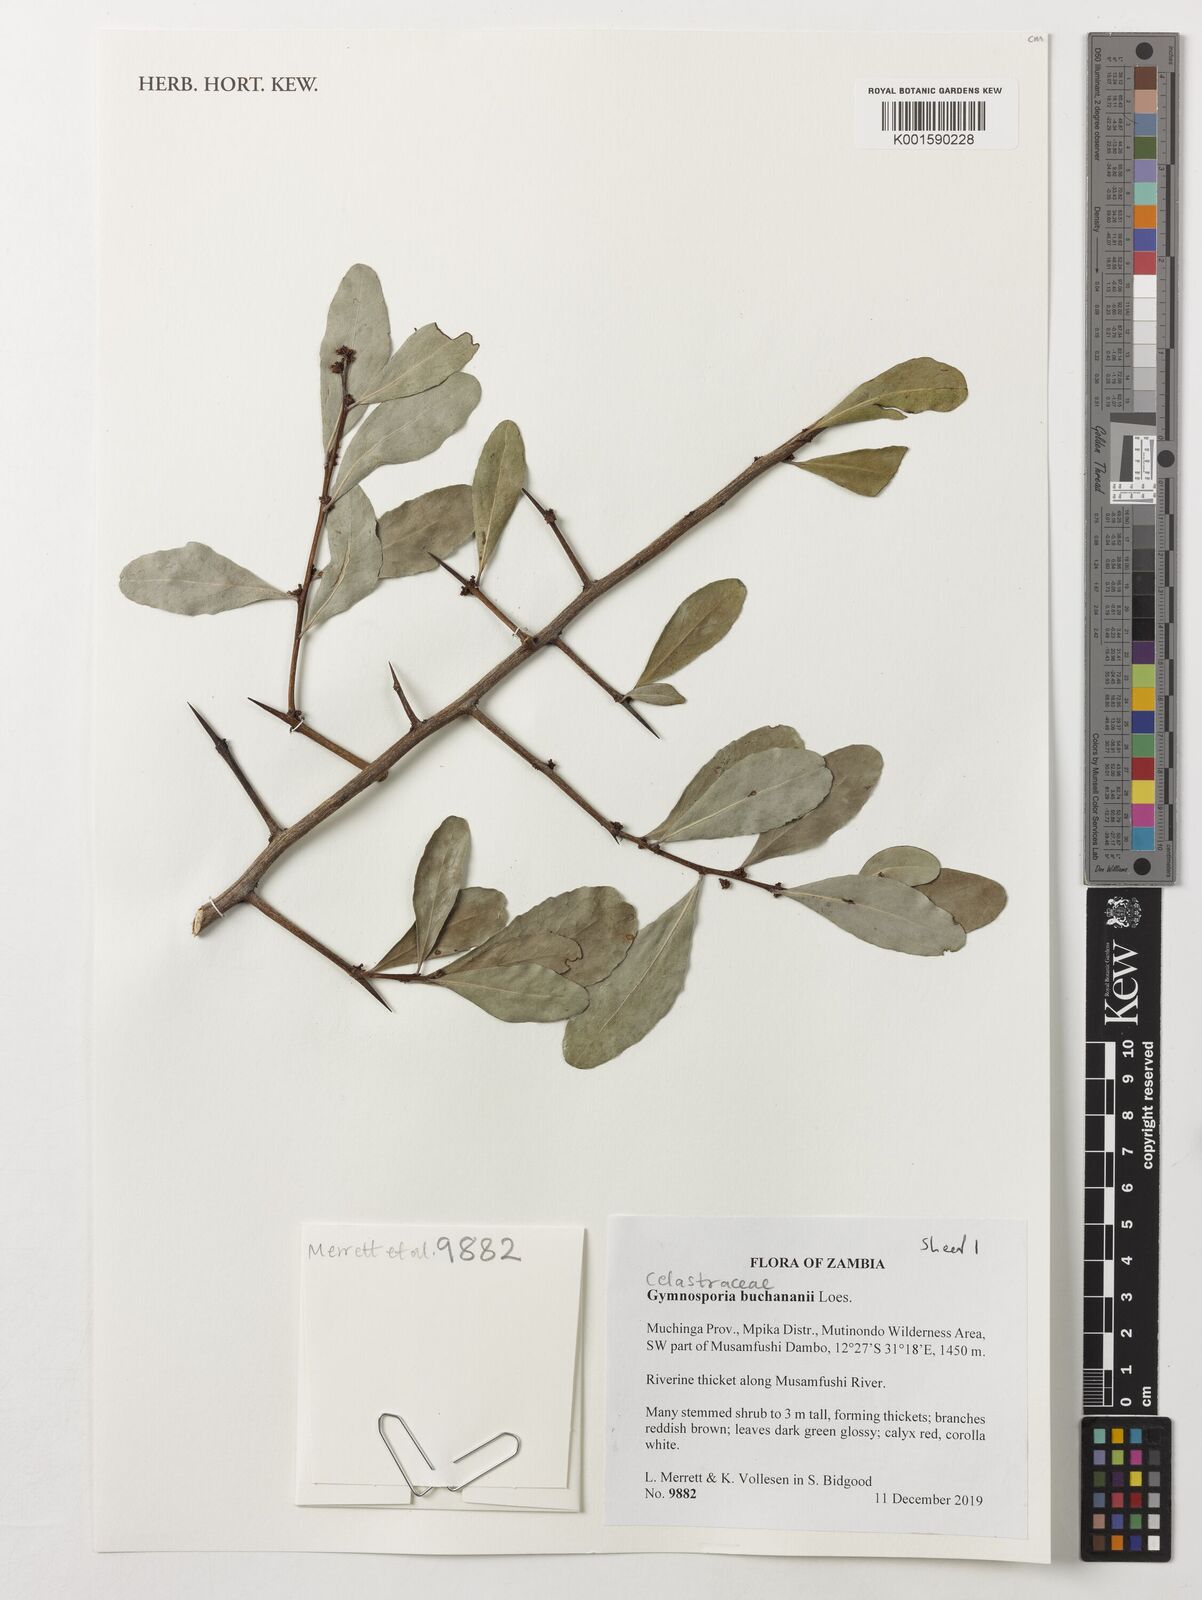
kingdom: Plantae
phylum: Tracheophyta
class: Magnoliopsida
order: Celastrales
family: Celastraceae
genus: Gymnosporia
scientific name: Gymnosporia buchananii
